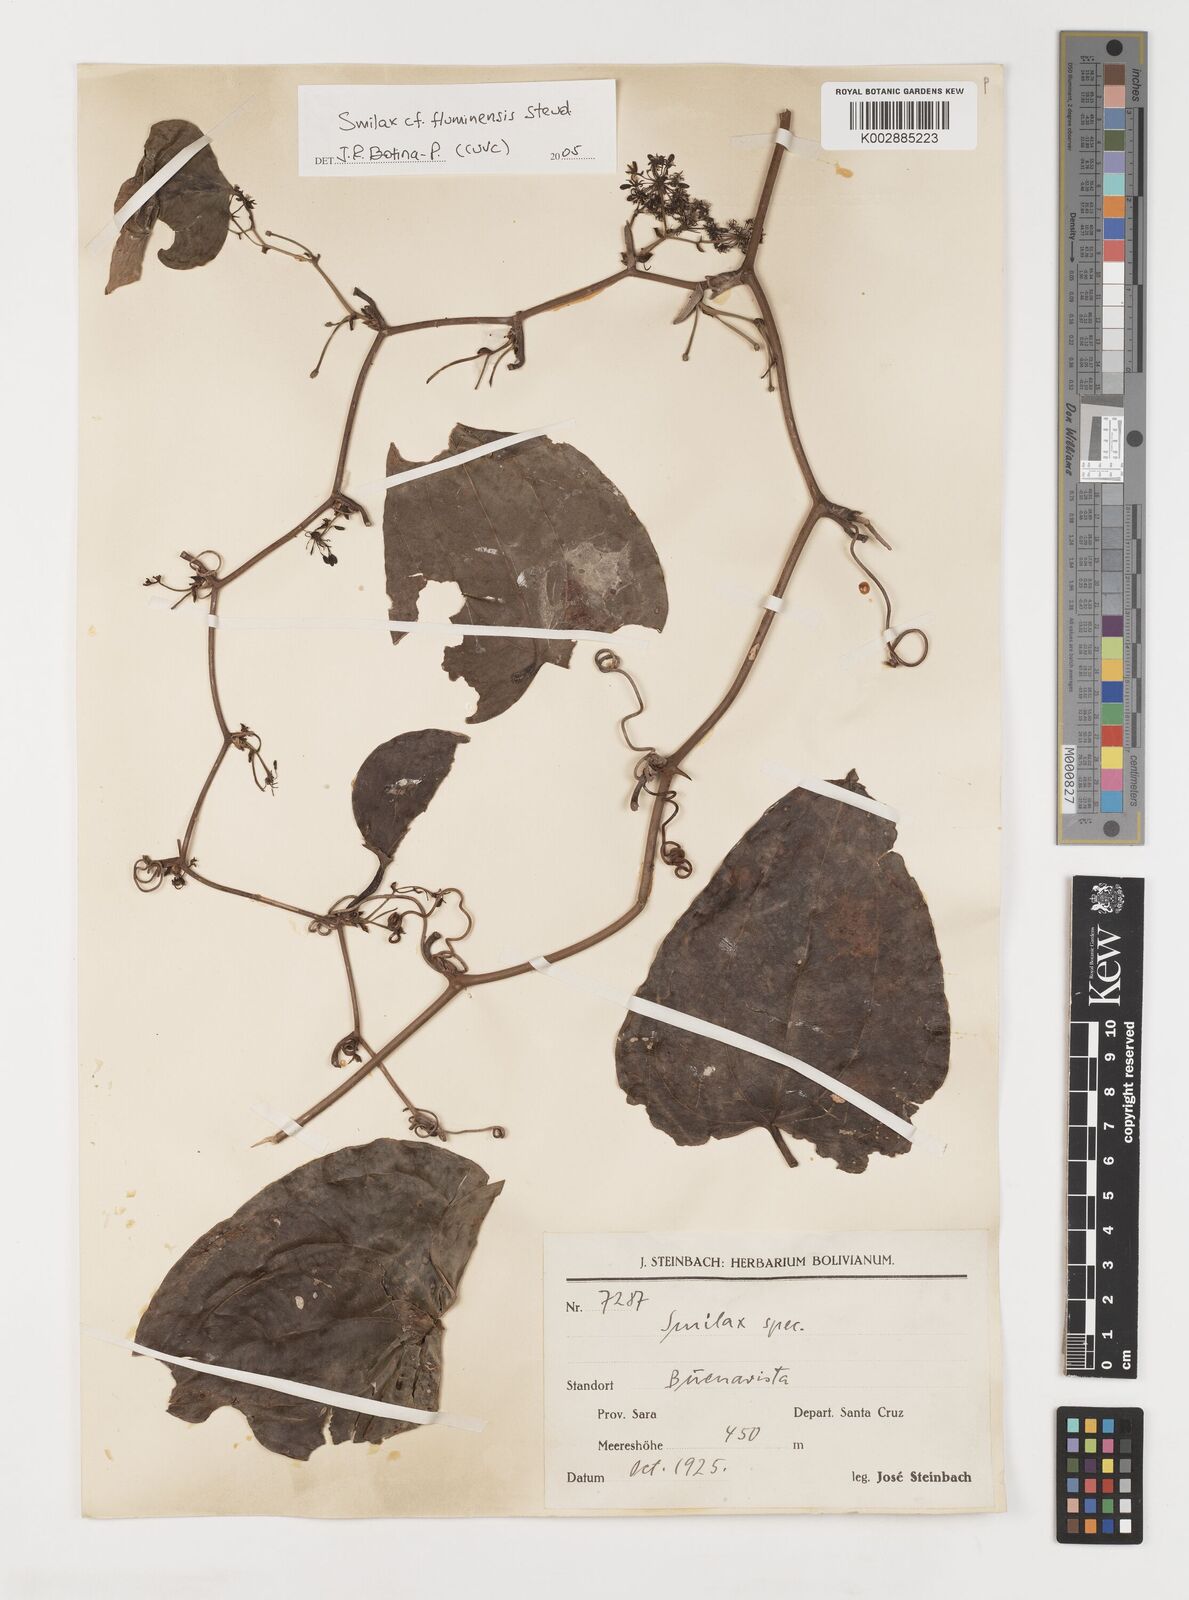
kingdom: Plantae
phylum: Tracheophyta
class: Liliopsida
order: Liliales
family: Smilacaceae
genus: Smilax
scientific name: Smilax fluminensis
